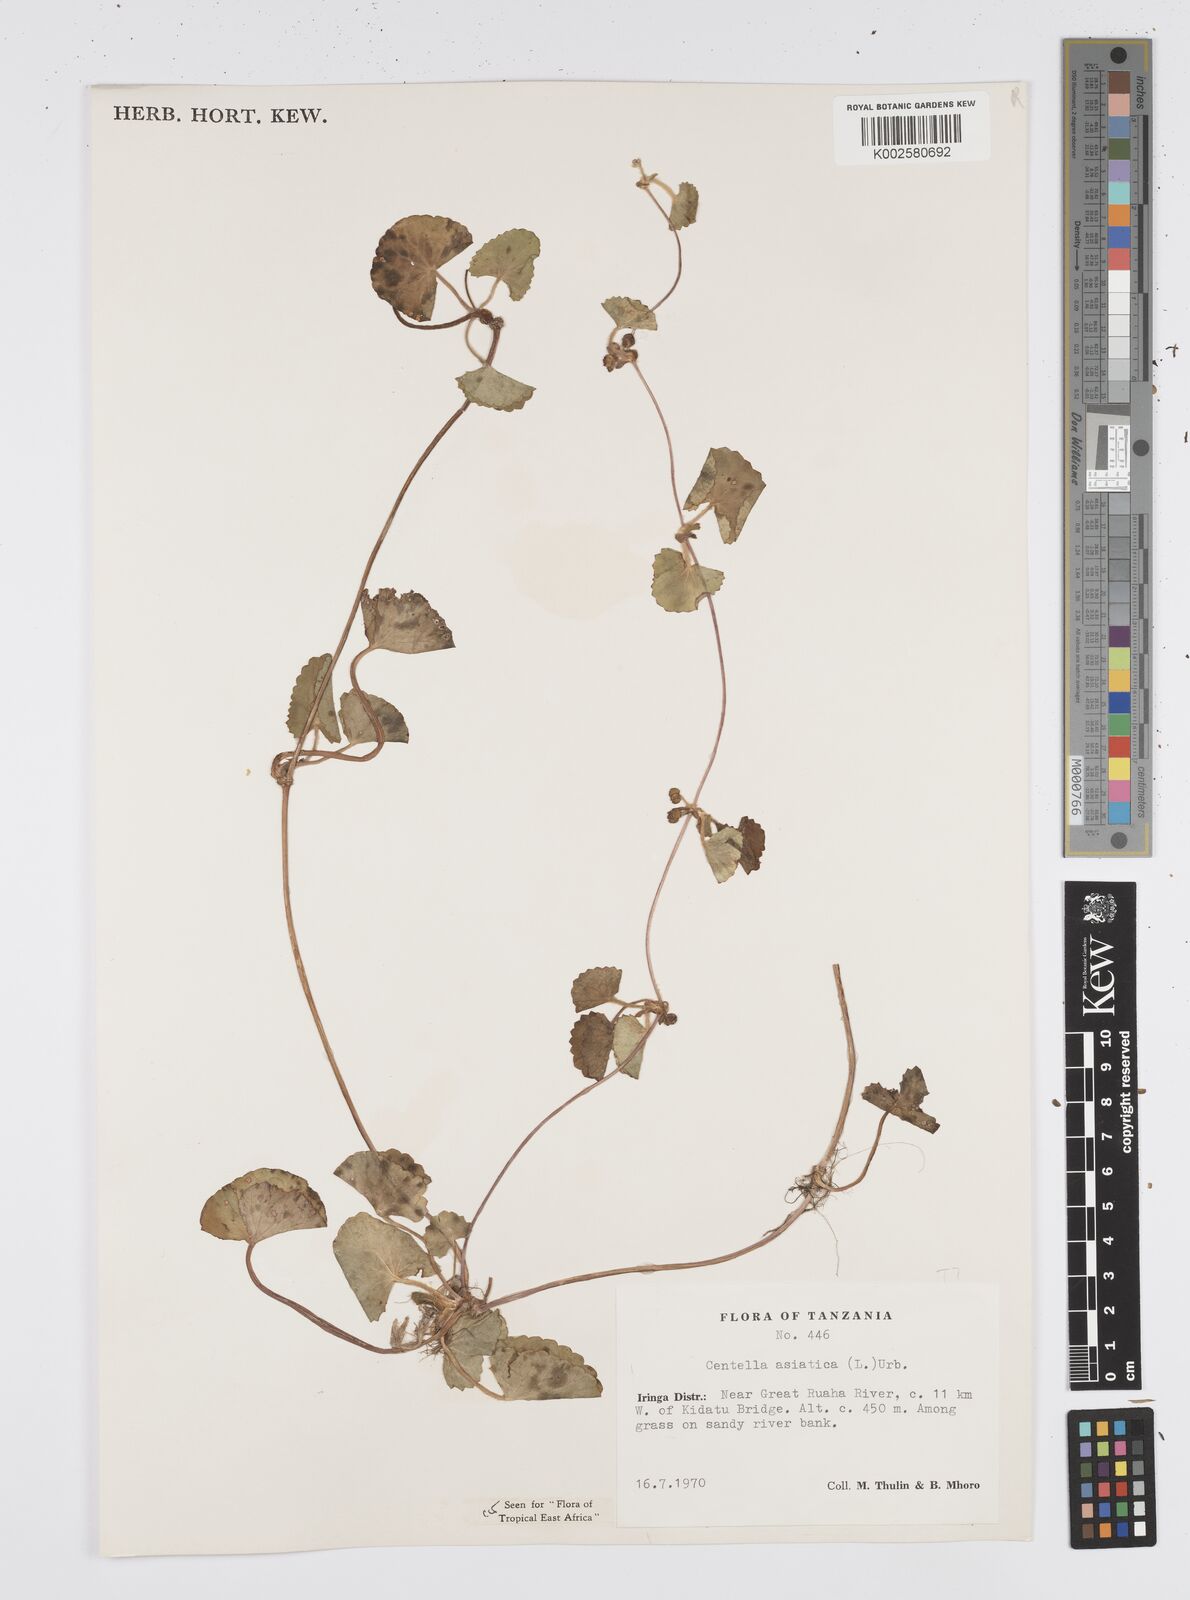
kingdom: Plantae
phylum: Tracheophyta
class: Magnoliopsida
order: Apiales
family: Apiaceae
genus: Centella
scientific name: Centella asiatica
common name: Spadeleaf
